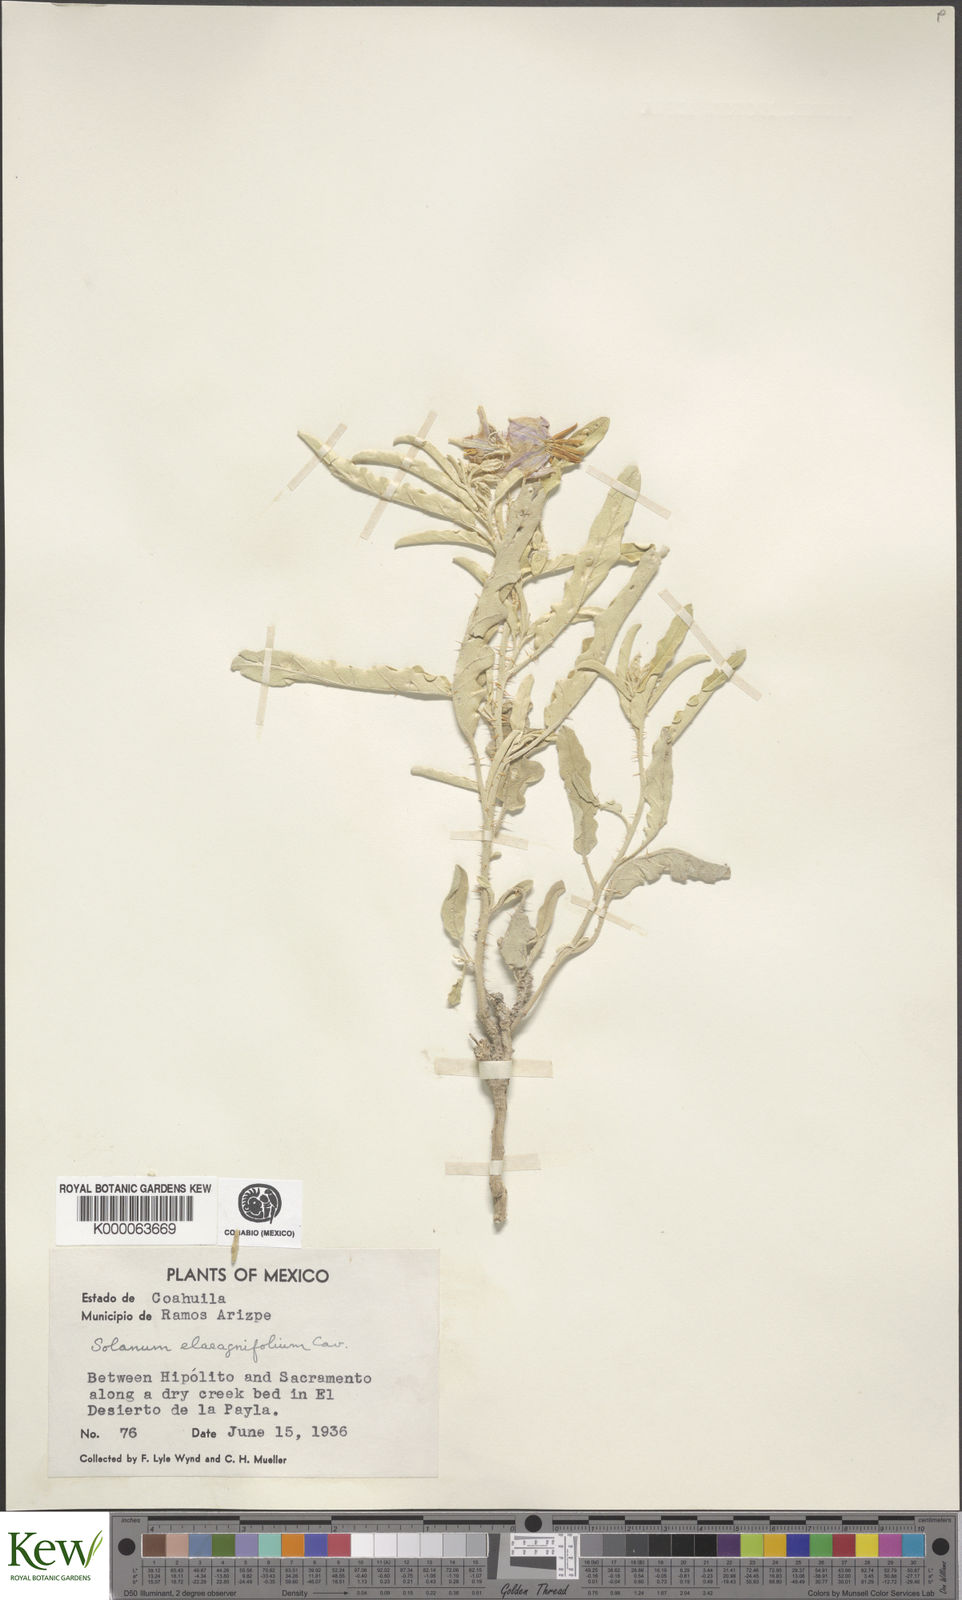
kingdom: Plantae
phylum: Tracheophyta
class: Magnoliopsida
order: Solanales
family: Solanaceae
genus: Solanum
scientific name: Solanum elaeagnifolium
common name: Silverleaf nightshade
